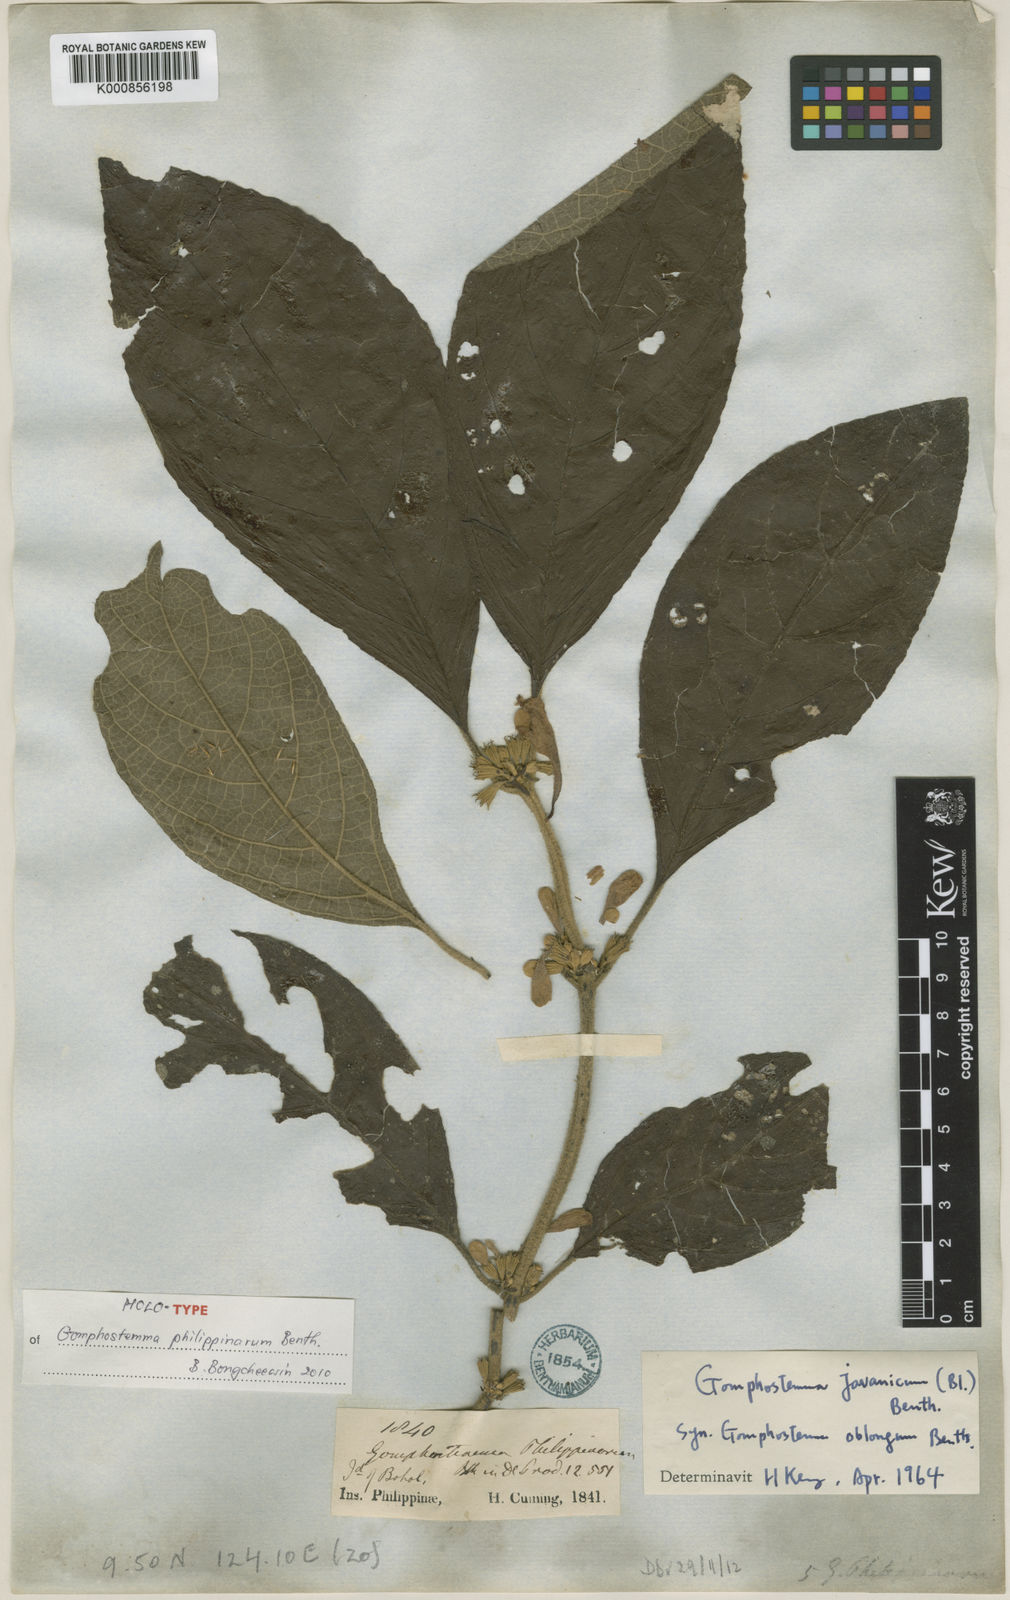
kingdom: Plantae
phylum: Tracheophyta
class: Magnoliopsida
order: Lamiales
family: Lamiaceae
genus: Gomphostemma
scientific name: Gomphostemma javanicum
